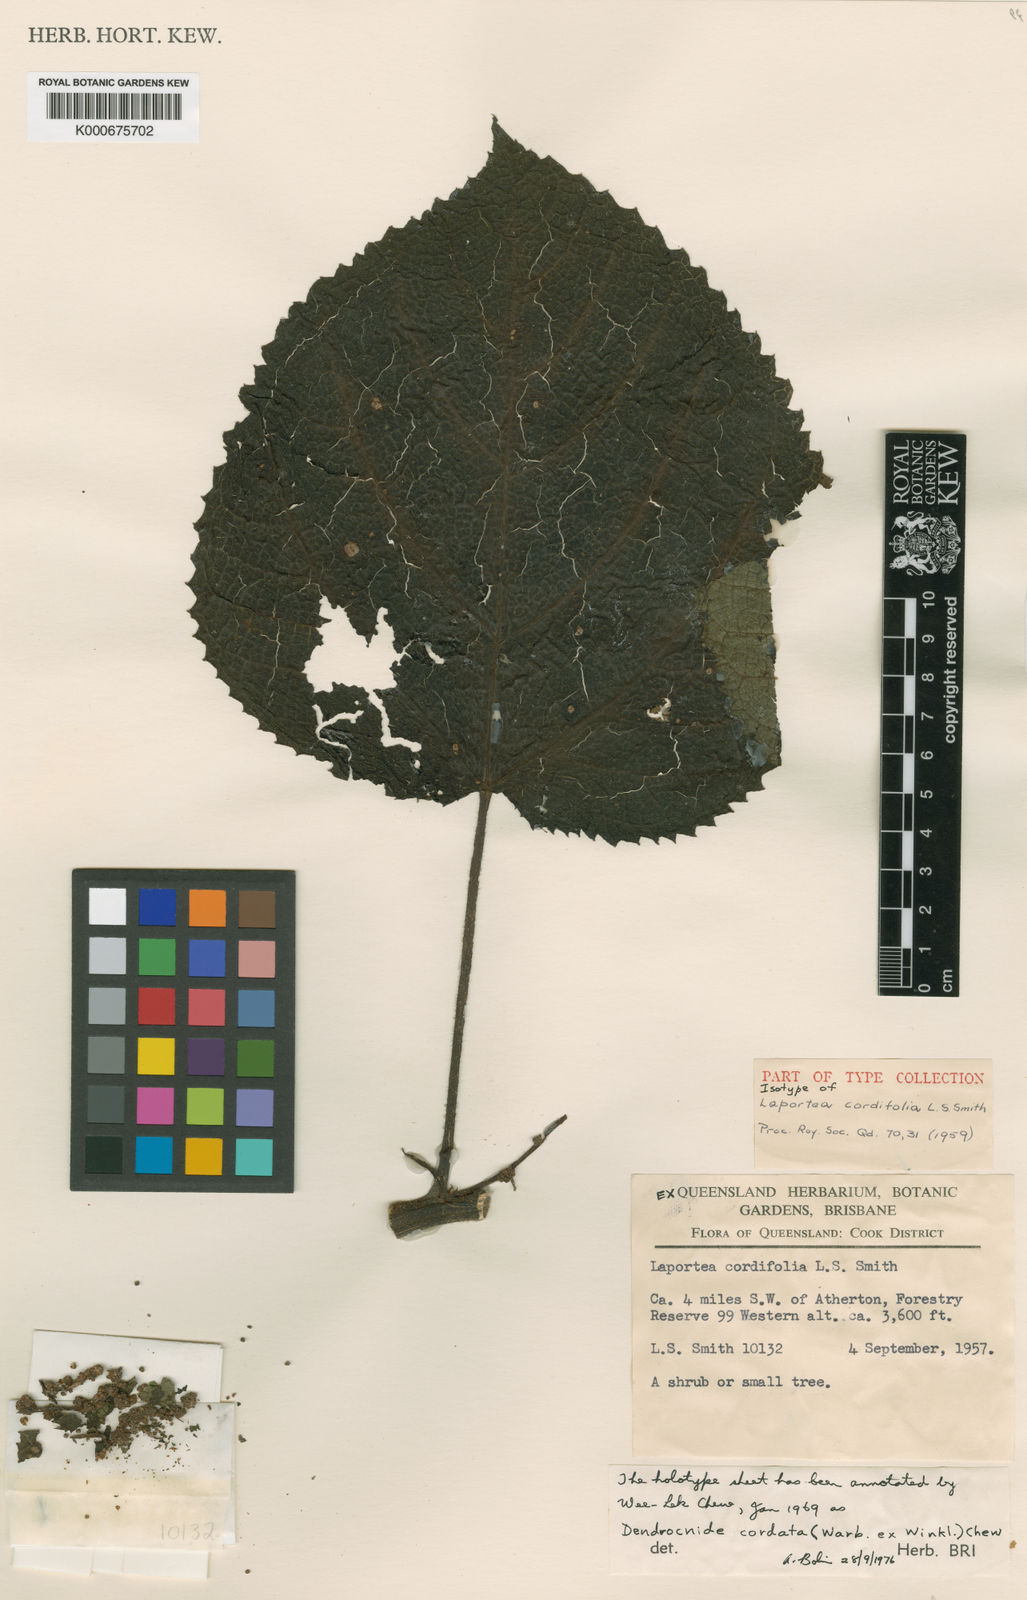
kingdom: Plantae
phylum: Tracheophyta
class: Magnoliopsida
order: Rosales
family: Urticaceae
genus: Dendrocnide
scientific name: Dendrocnide cordata
